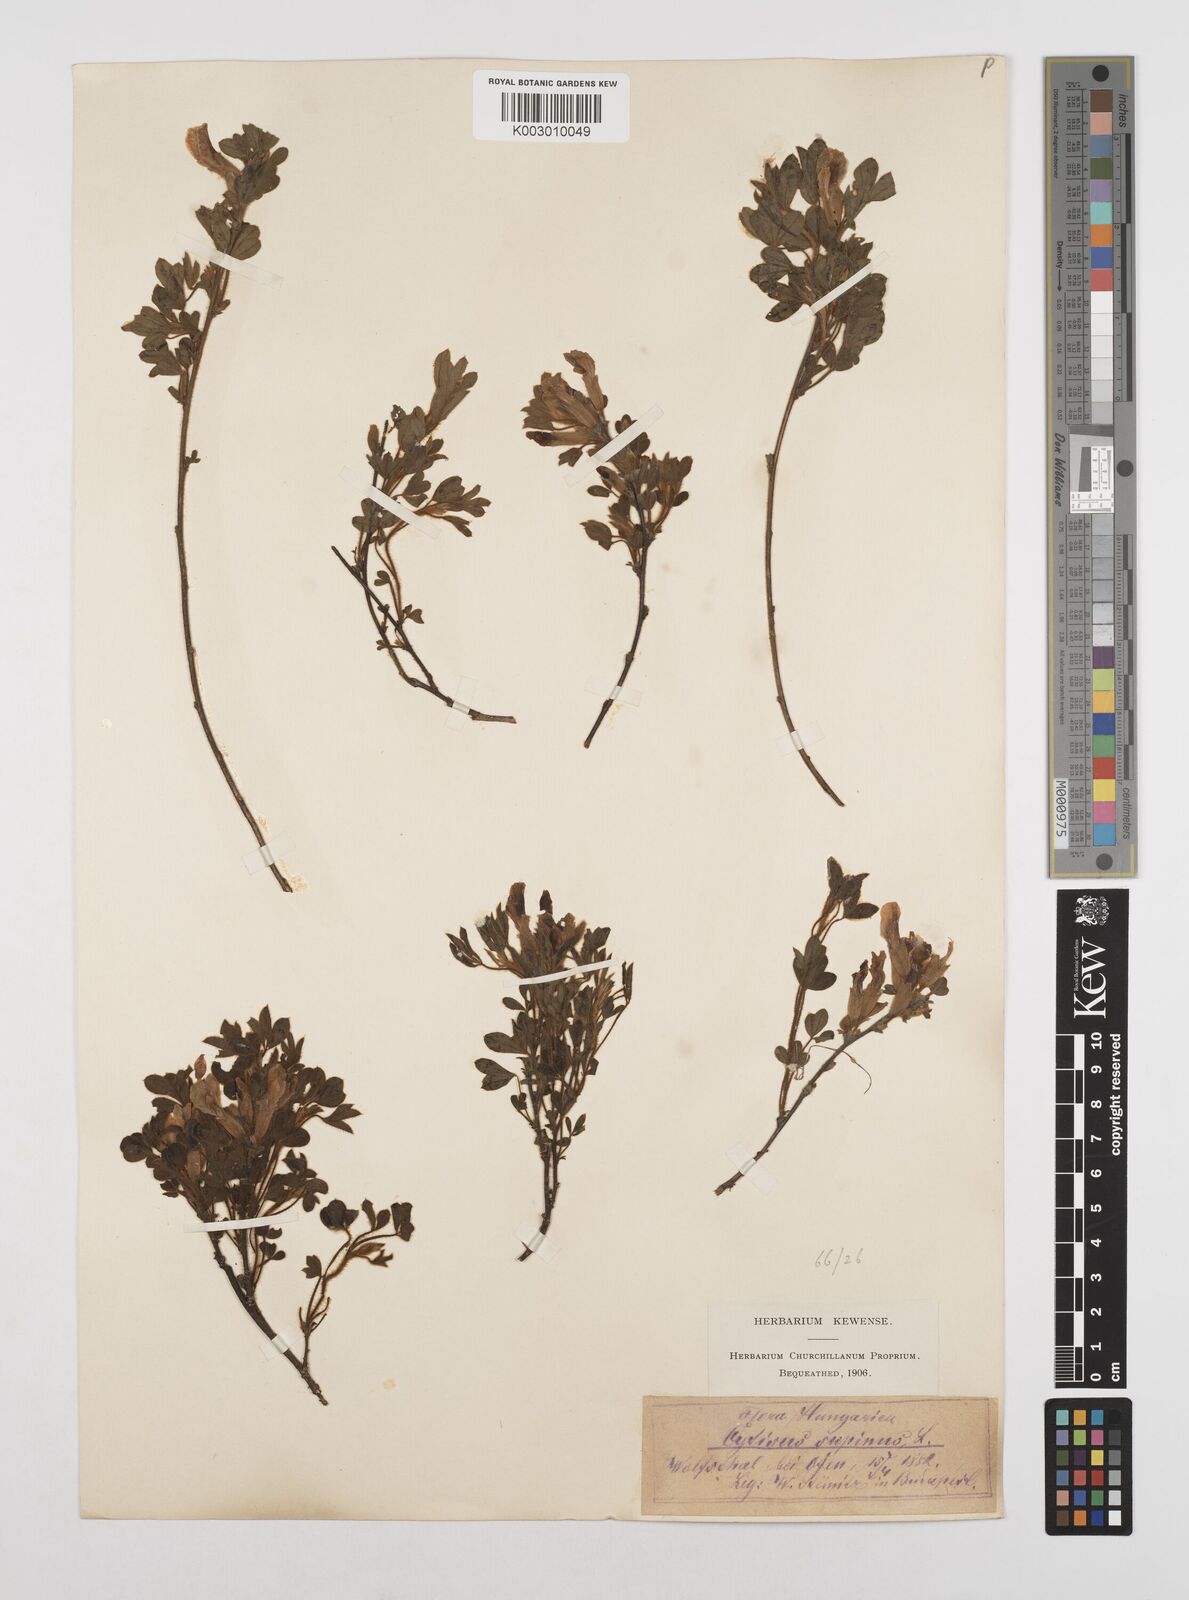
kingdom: Plantae
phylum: Tracheophyta
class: Magnoliopsida
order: Fabales
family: Fabaceae
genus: Chamaecytisus
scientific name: Chamaecytisus hirsutus
